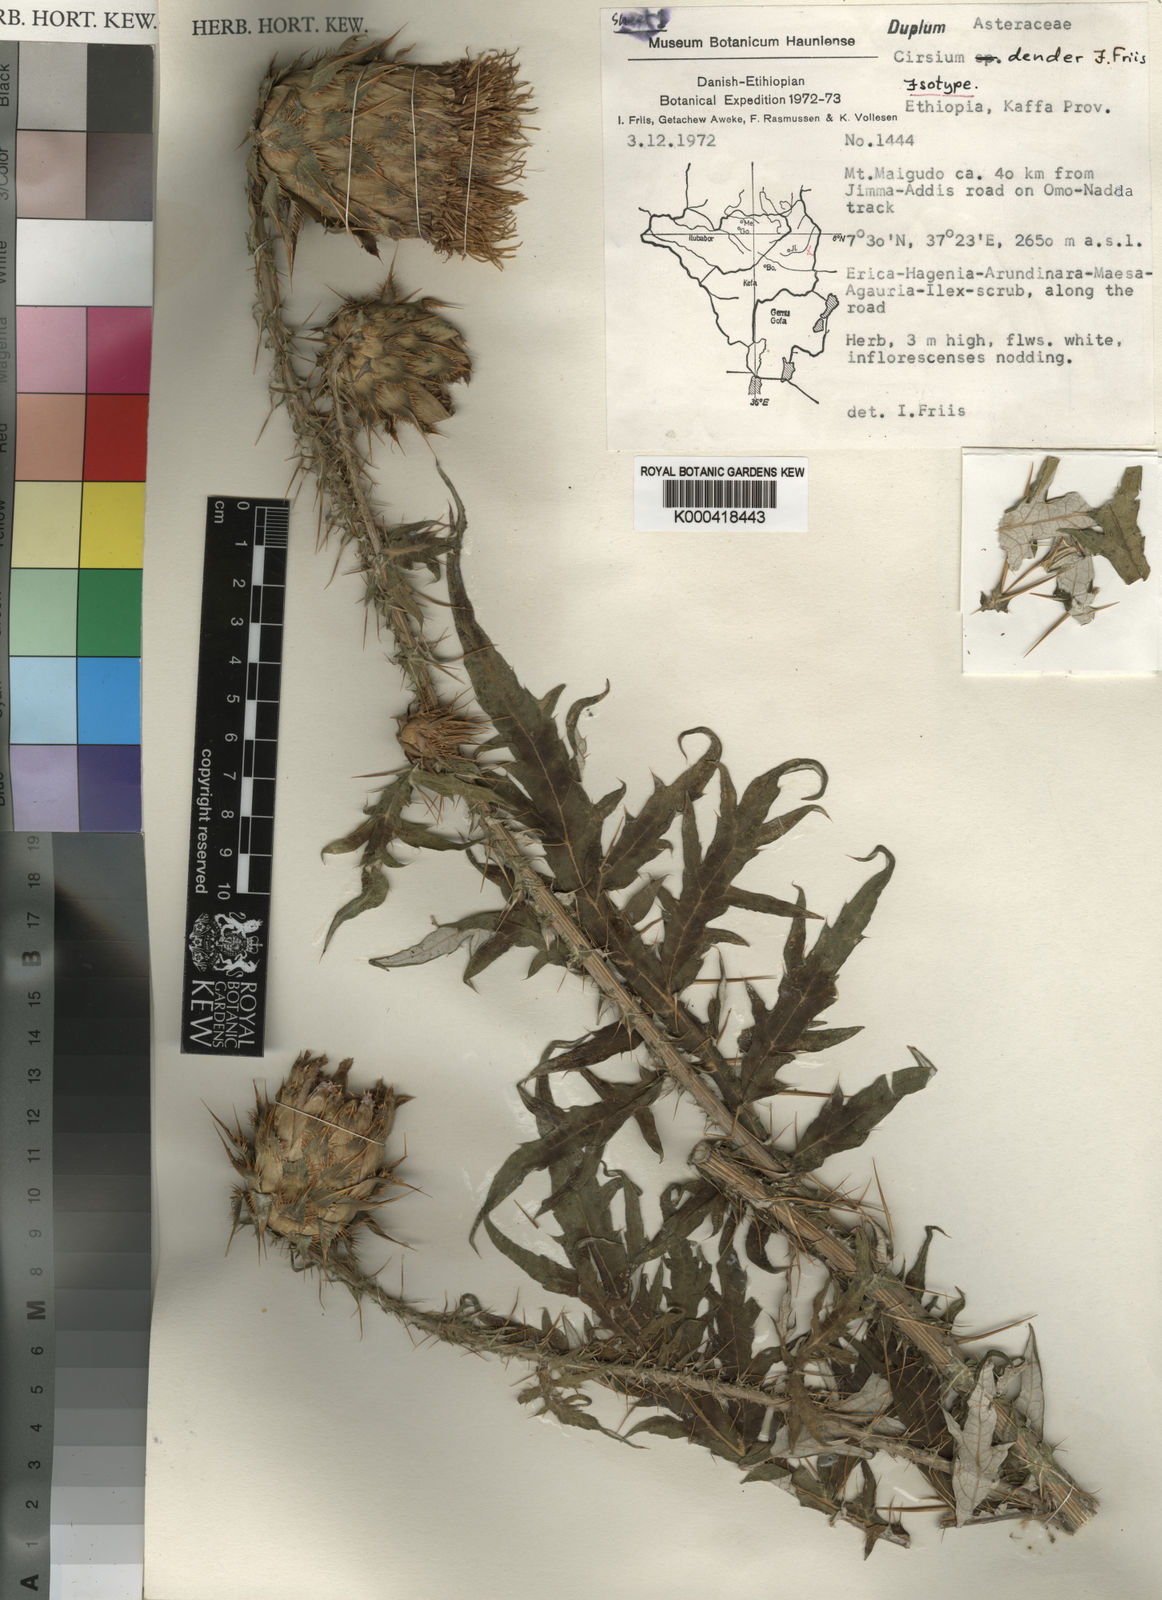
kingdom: Plantae
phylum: Tracheophyta
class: Magnoliopsida
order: Asterales
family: Asteraceae
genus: Cirsium
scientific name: Cirsium dender
